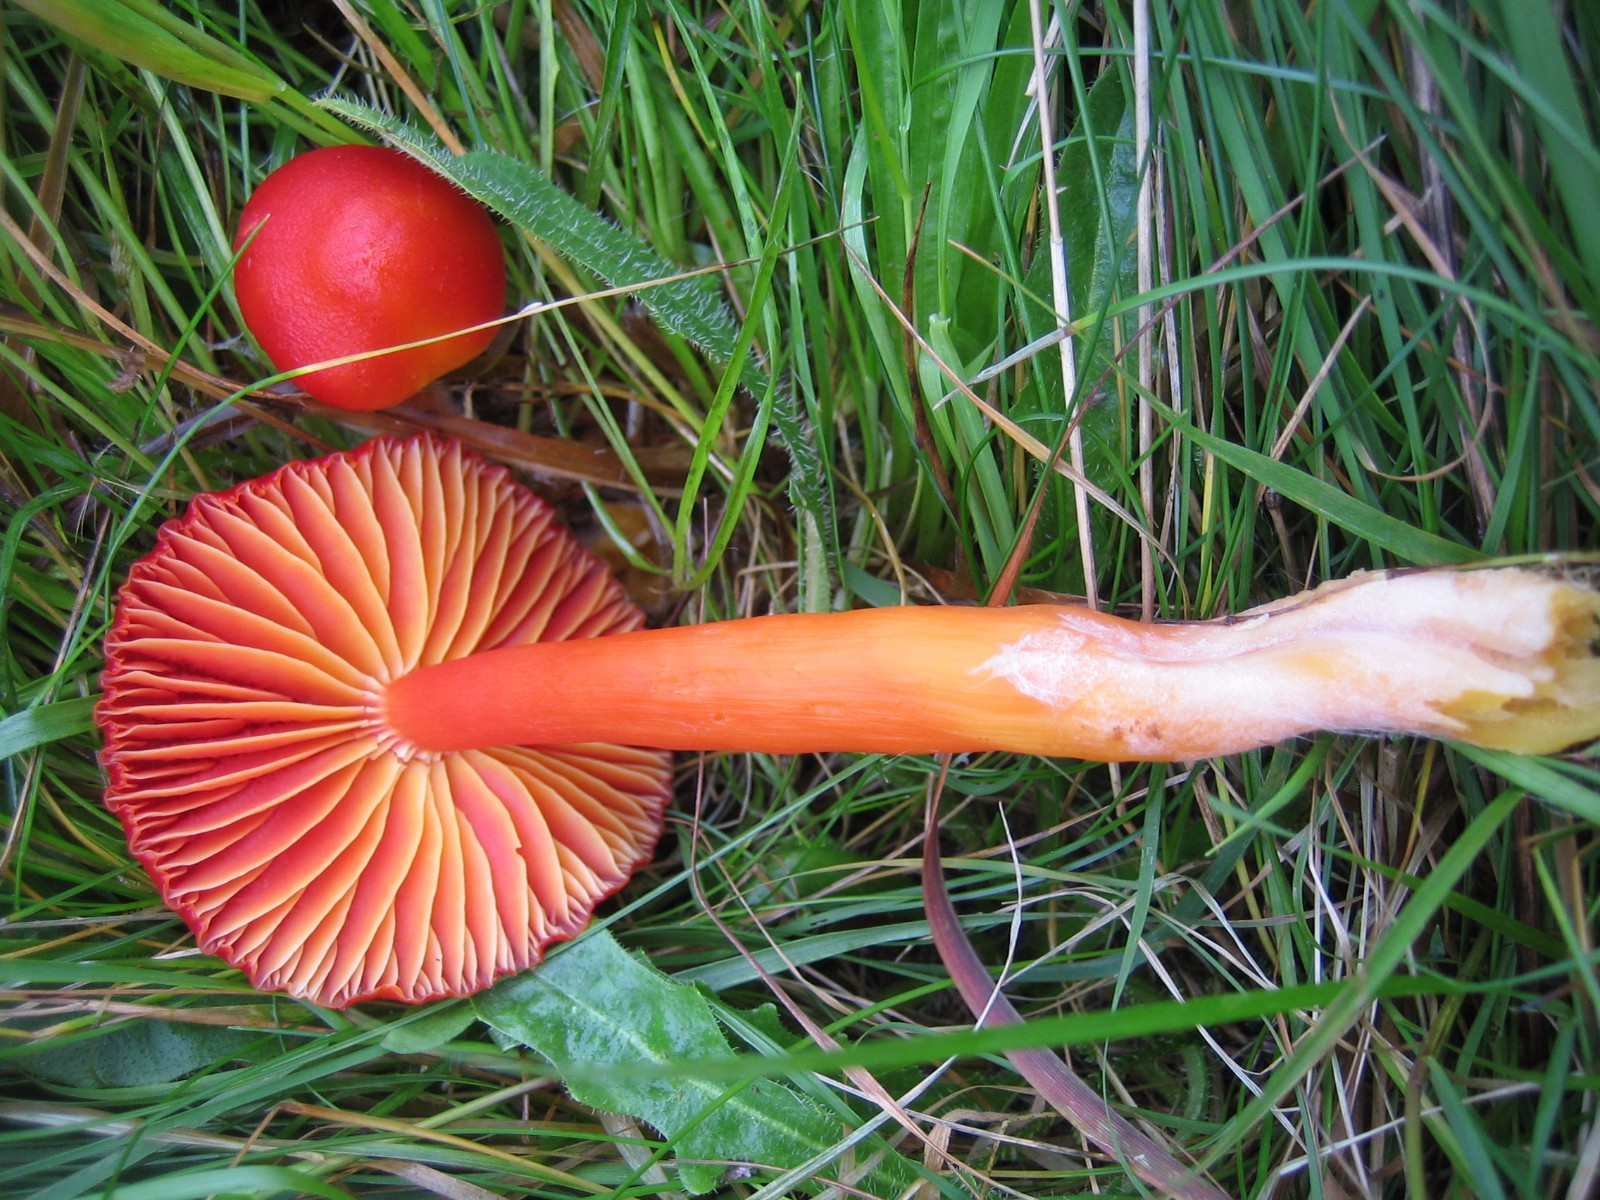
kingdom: Fungi
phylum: Basidiomycota
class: Agaricomycetes
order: Agaricales
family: Hygrophoraceae
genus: Hygrocybe
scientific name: Hygrocybe coccinea
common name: cinnober-vokshat
